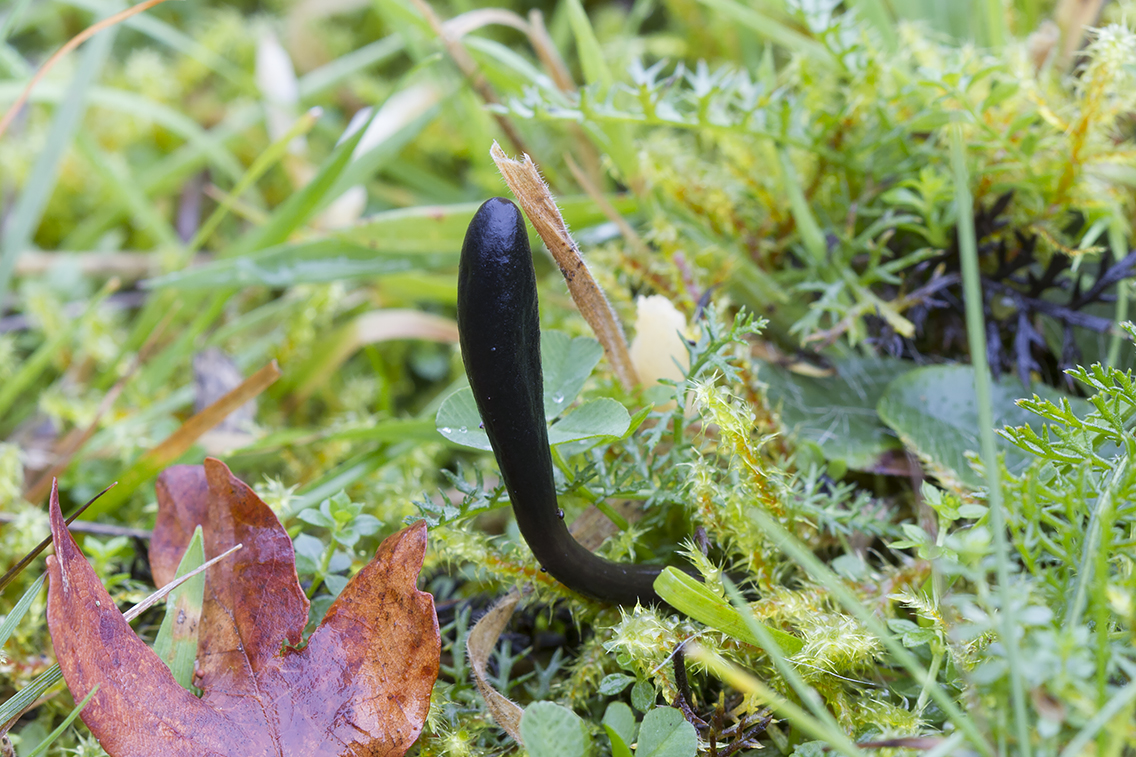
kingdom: Fungi
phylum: Ascomycota
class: Geoglossomycetes
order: Geoglossales
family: Geoglossaceae
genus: Glutinoglossum
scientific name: Glutinoglossum heptaseptatum
